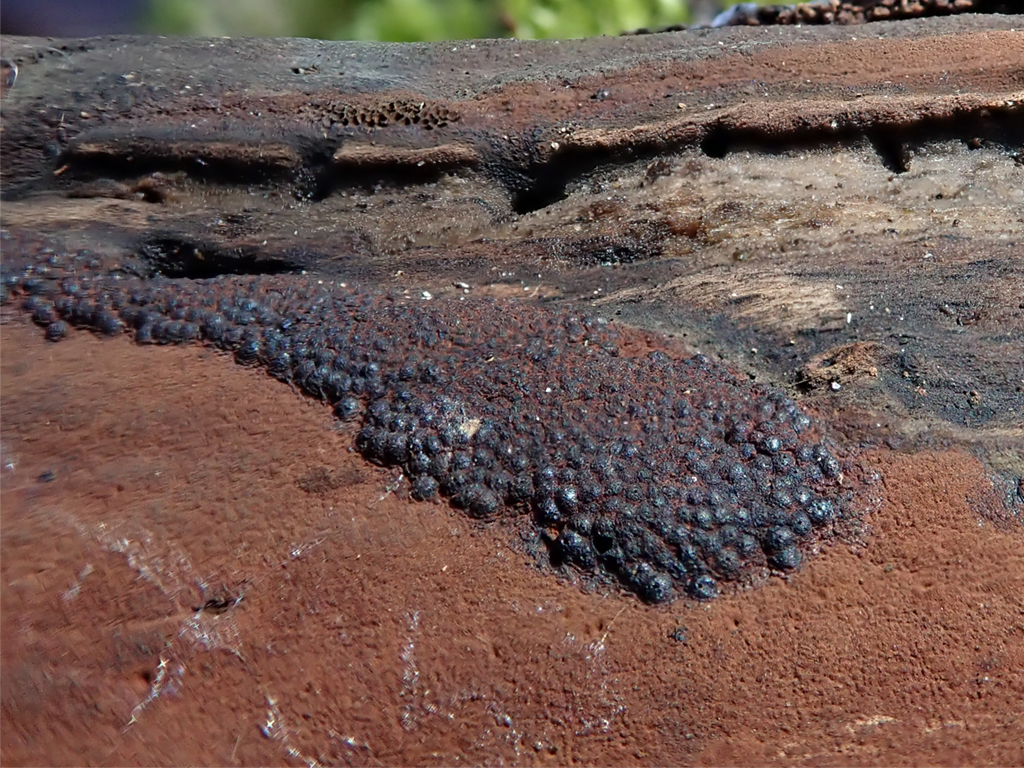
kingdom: Fungi
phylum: Ascomycota
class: Sordariomycetes
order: Xylariales
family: Hypoxylaceae
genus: Hypoxylon
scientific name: Hypoxylon macrocarpum
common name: skorpe-kulbær
